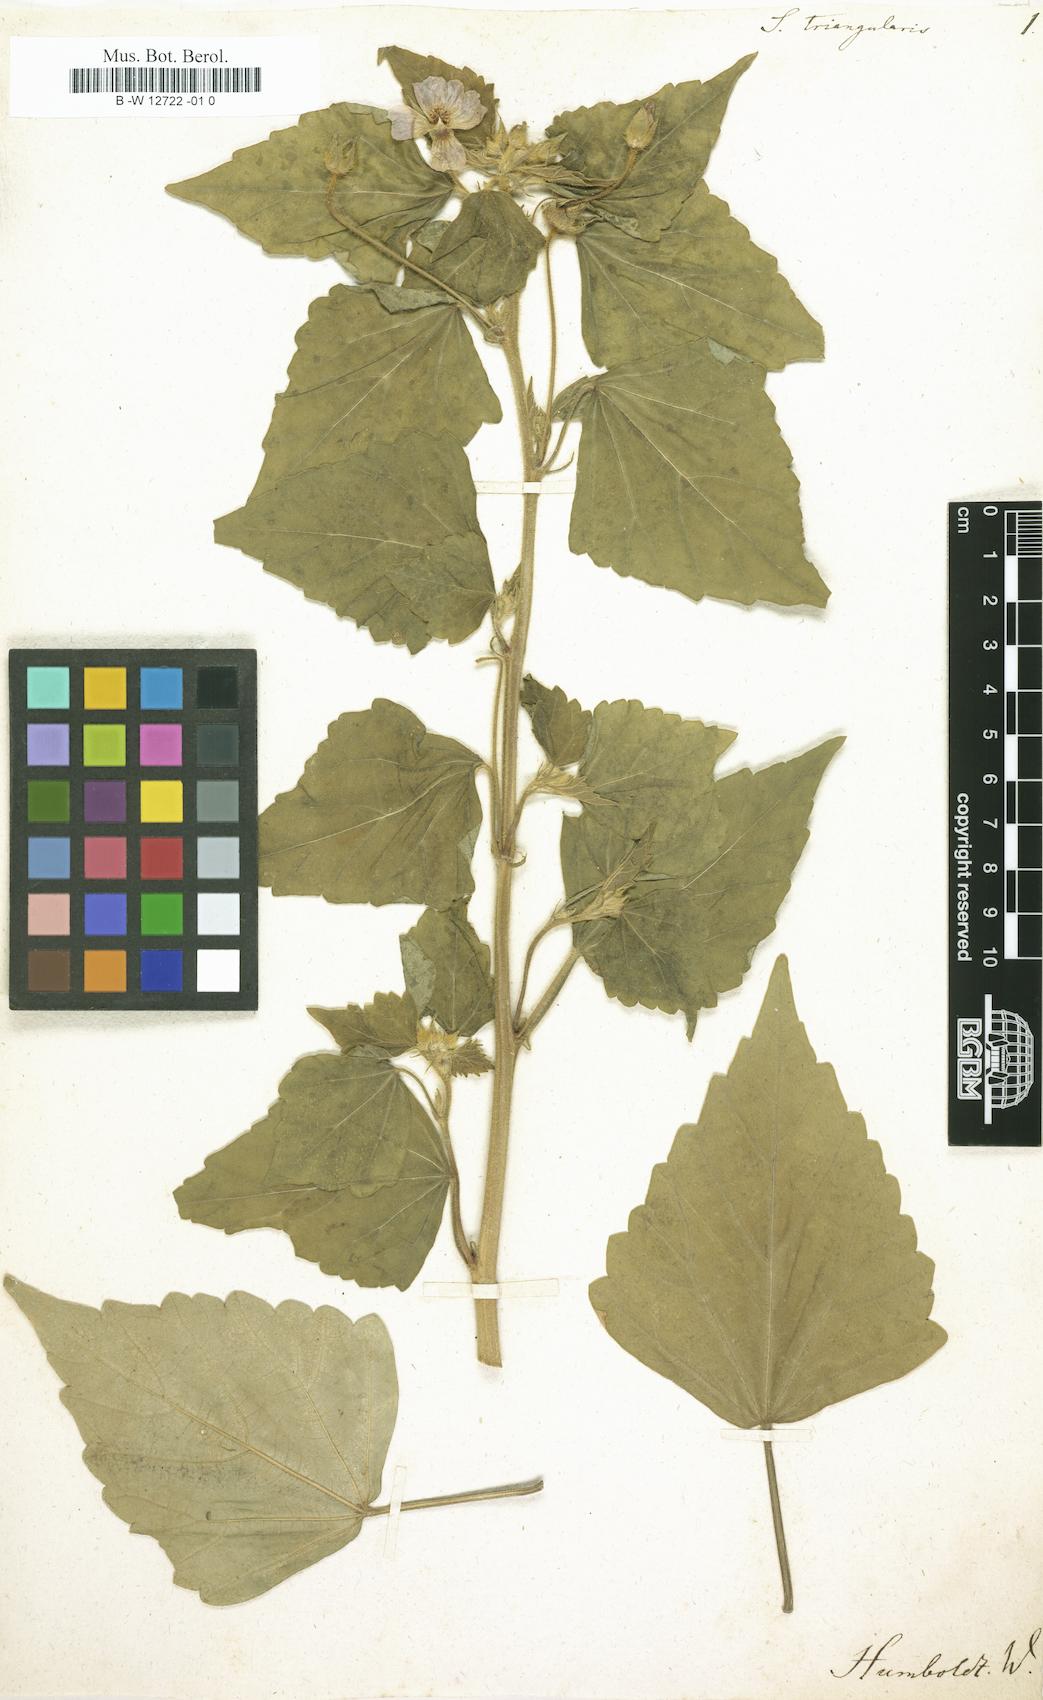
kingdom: Plantae
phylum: Tracheophyta
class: Magnoliopsida
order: Malvales
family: Malvaceae
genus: Anoda
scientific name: Anoda cristata
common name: Spurred anoda
